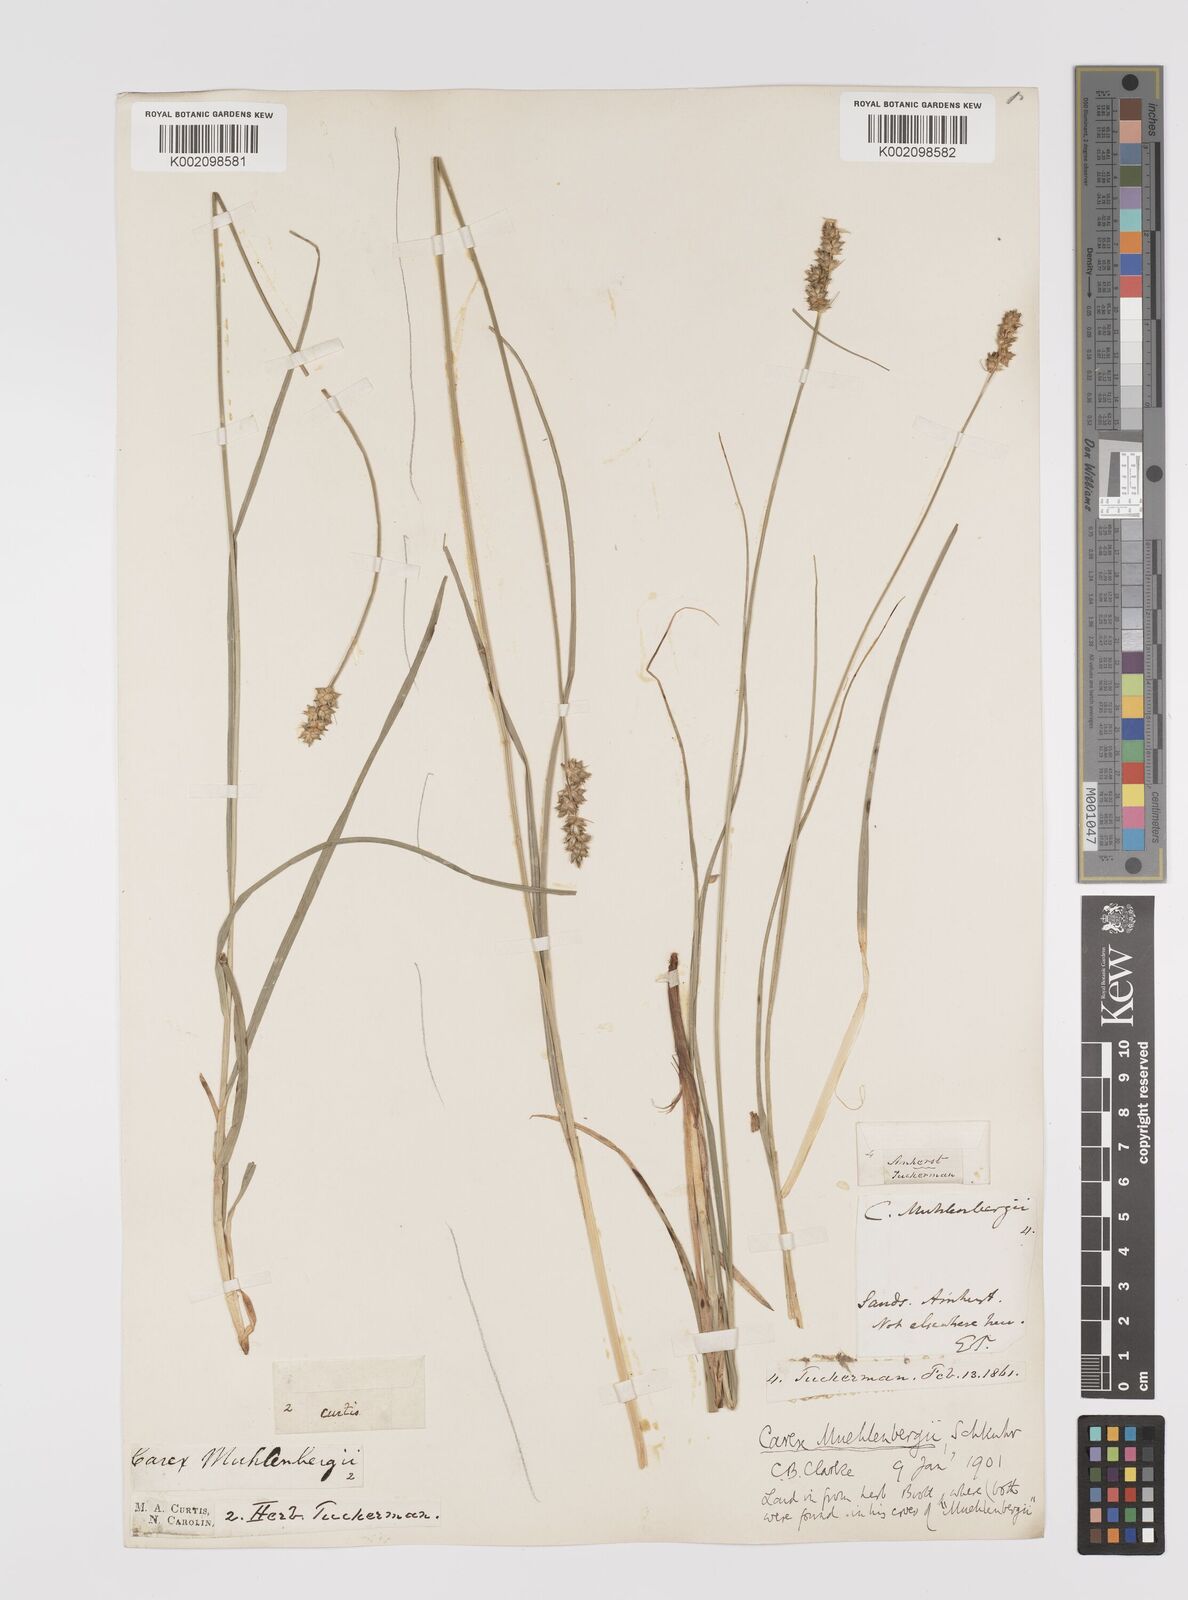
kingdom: Plantae
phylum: Tracheophyta
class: Liliopsida
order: Poales
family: Cyperaceae
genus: Carex
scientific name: Carex vulpinoidea
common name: American fox-sedge
